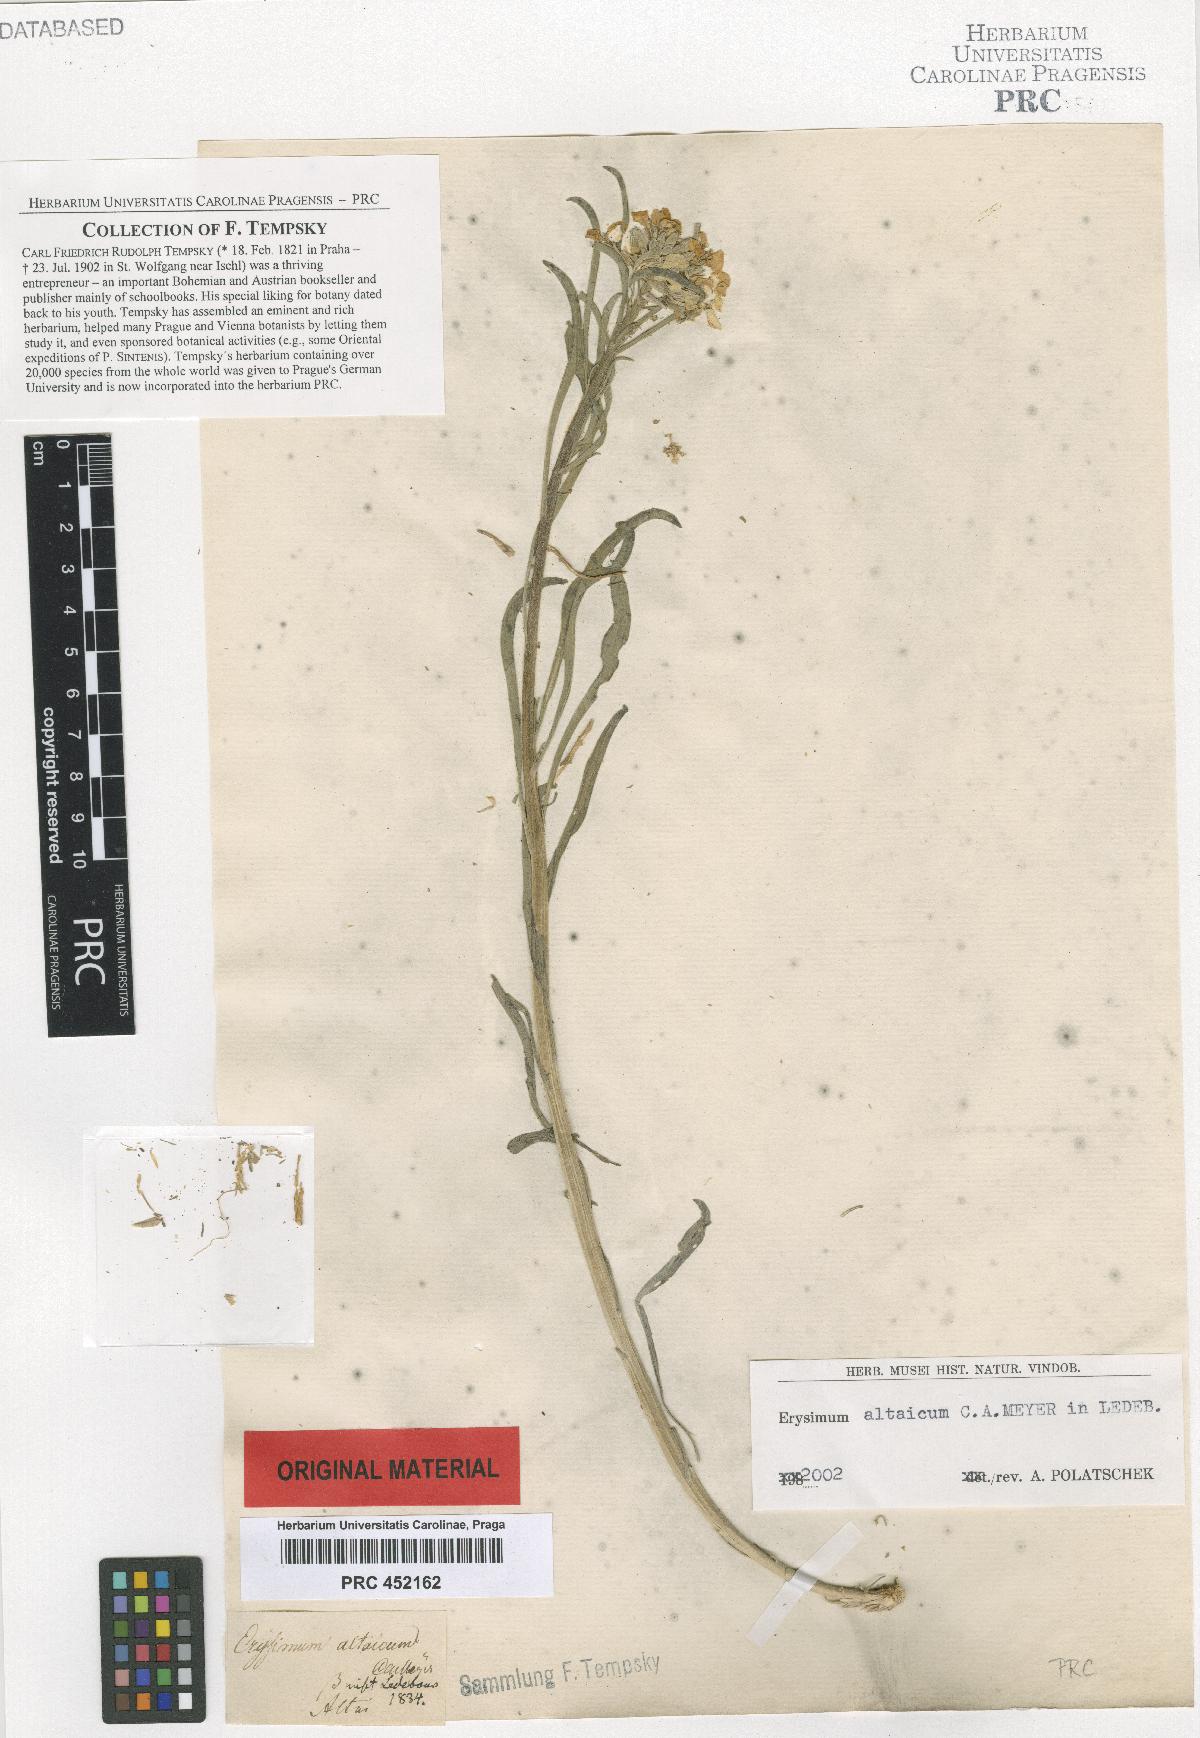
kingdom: Plantae
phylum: Tracheophyta
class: Magnoliopsida
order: Brassicales
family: Brassicaceae
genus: Erysimum
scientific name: Erysimum altaicum
